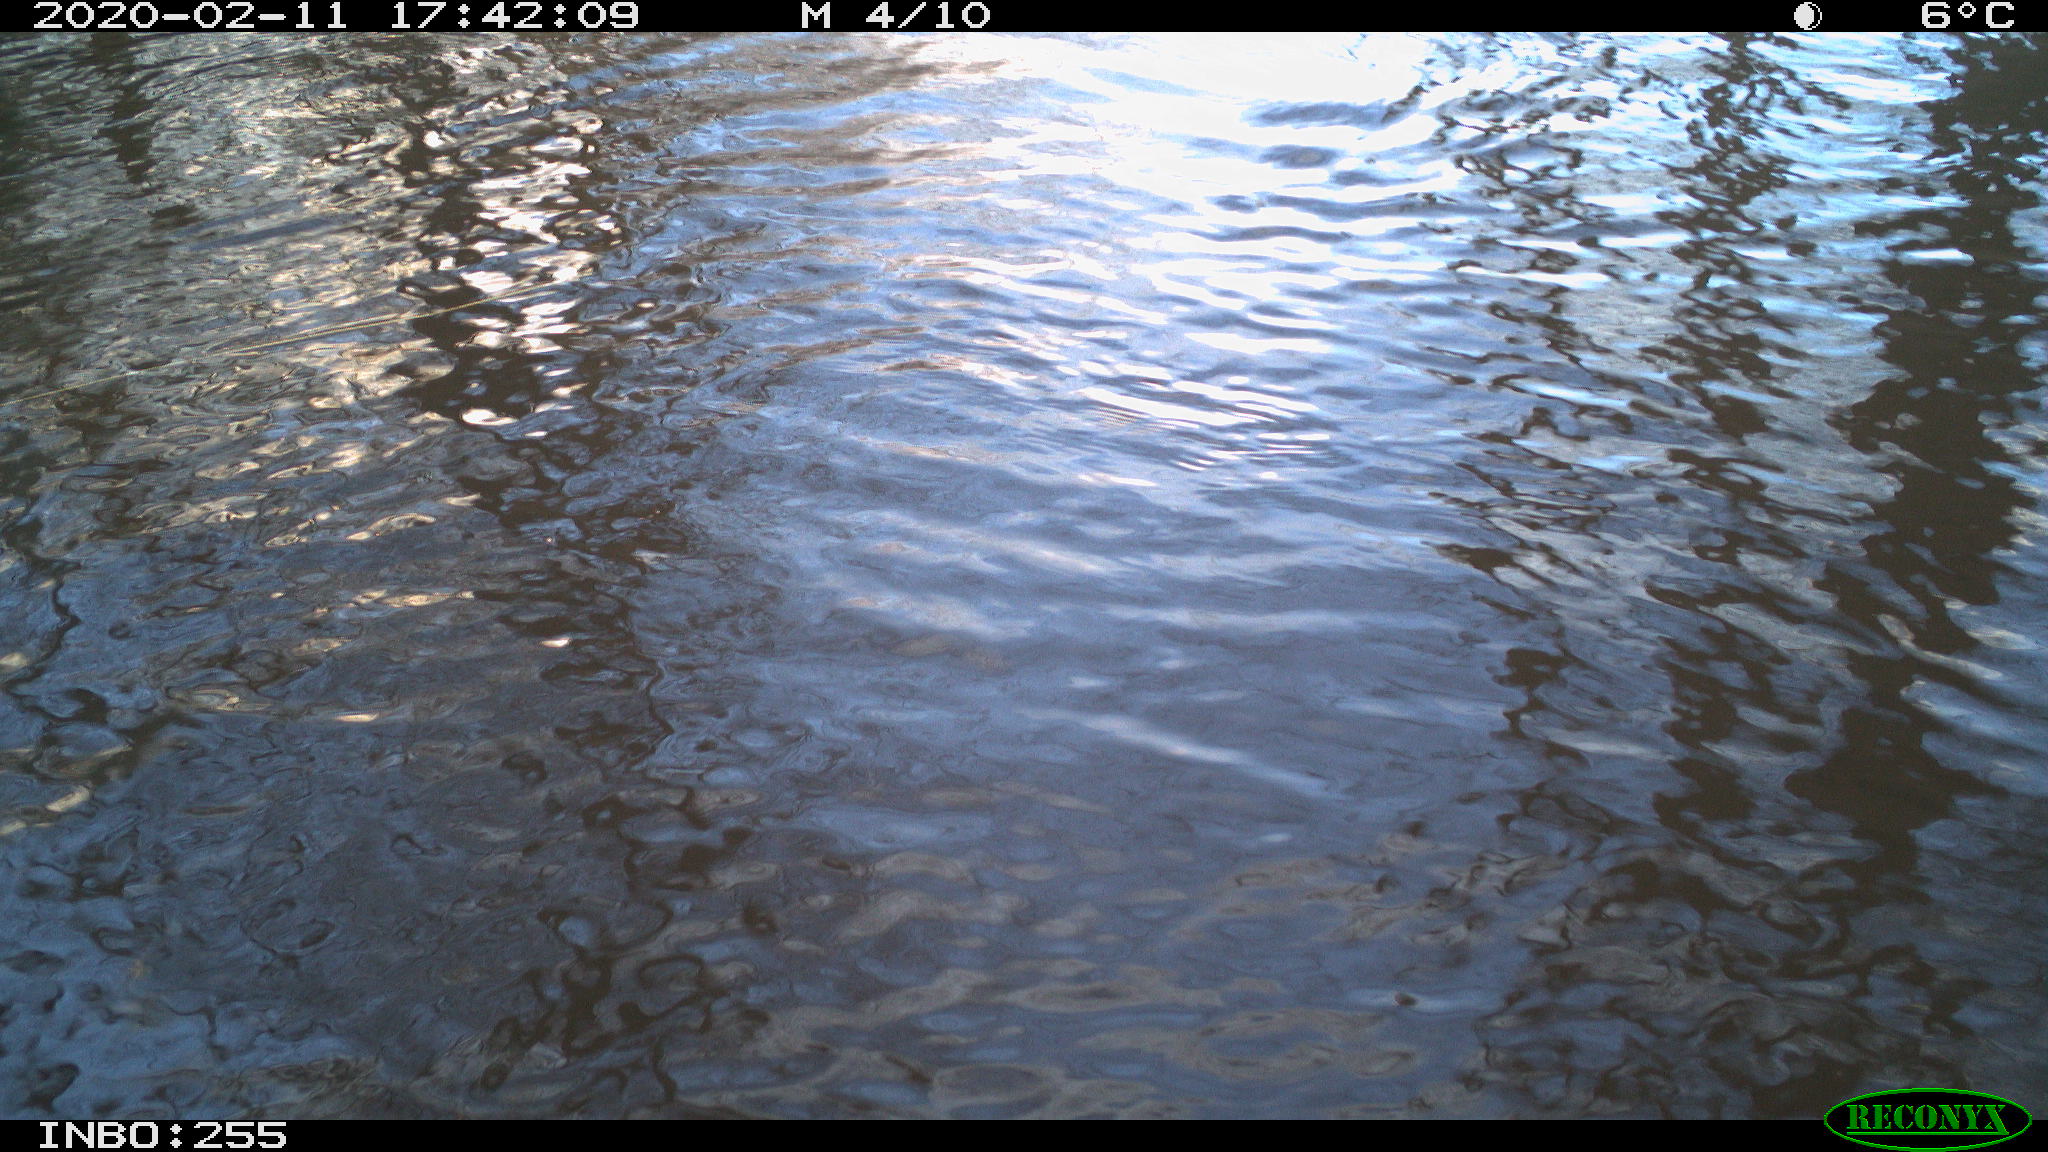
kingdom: Animalia
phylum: Chordata
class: Aves
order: Gruiformes
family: Rallidae
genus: Fulica
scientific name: Fulica atra
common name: Eurasian coot
